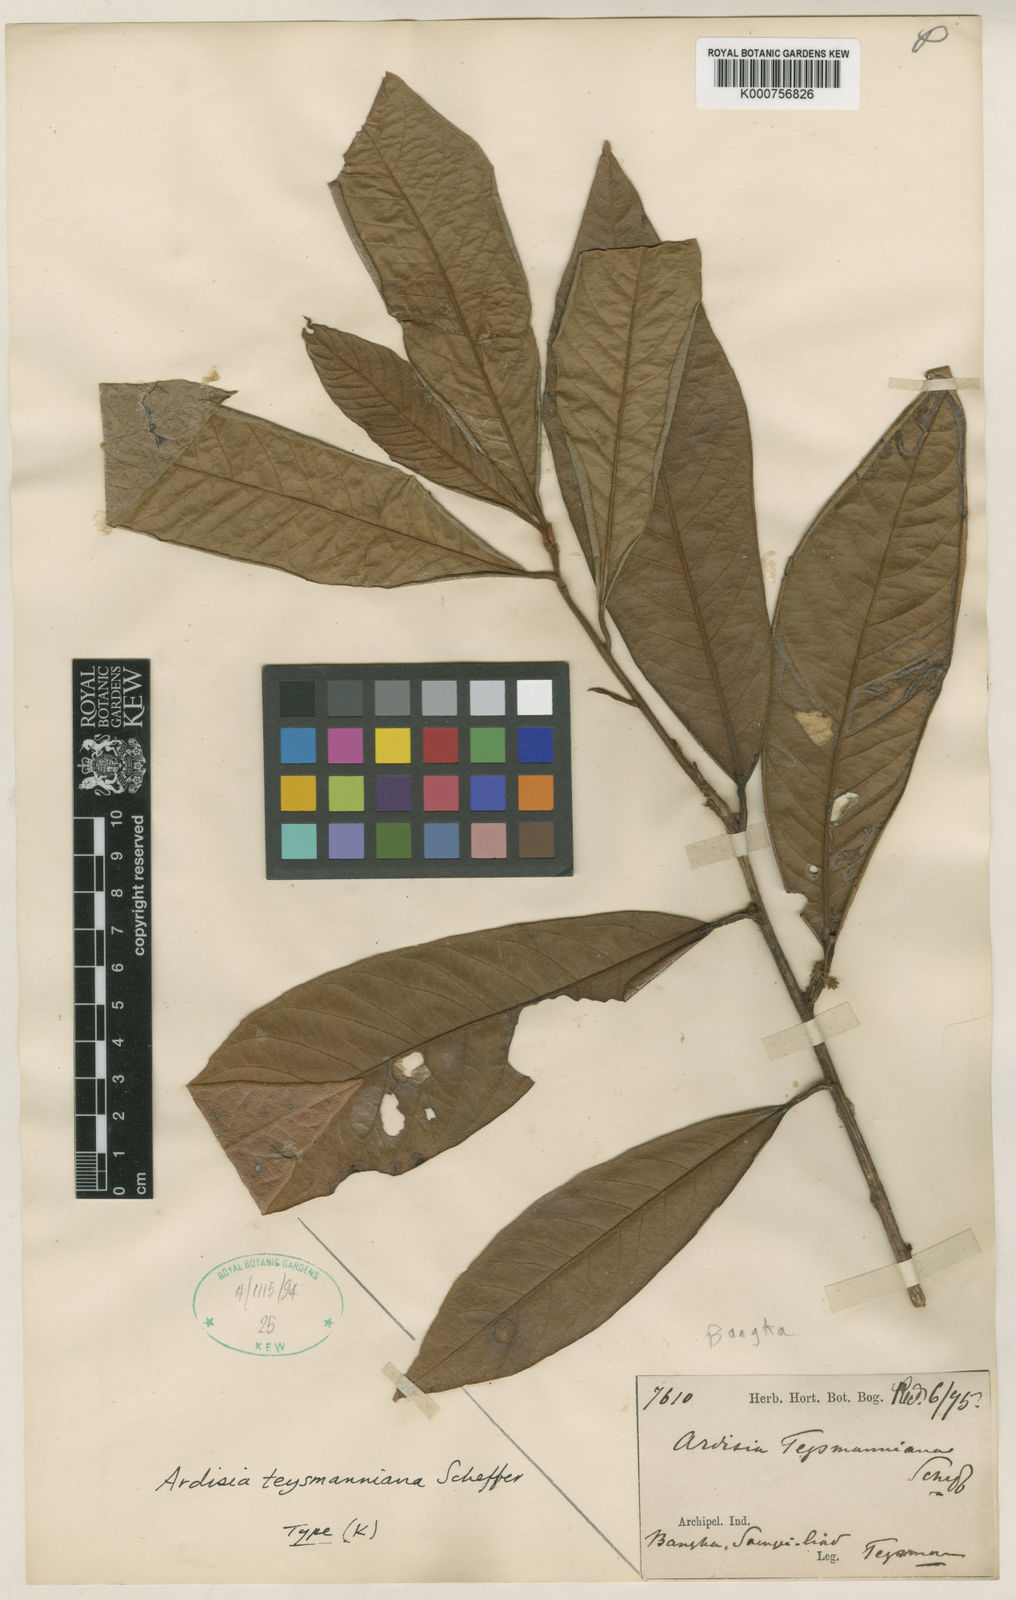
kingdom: Plantae
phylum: Tracheophyta
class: Magnoliopsida
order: Ericales
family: Primulaceae
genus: Ardisia
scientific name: Ardisia teysmanniana
